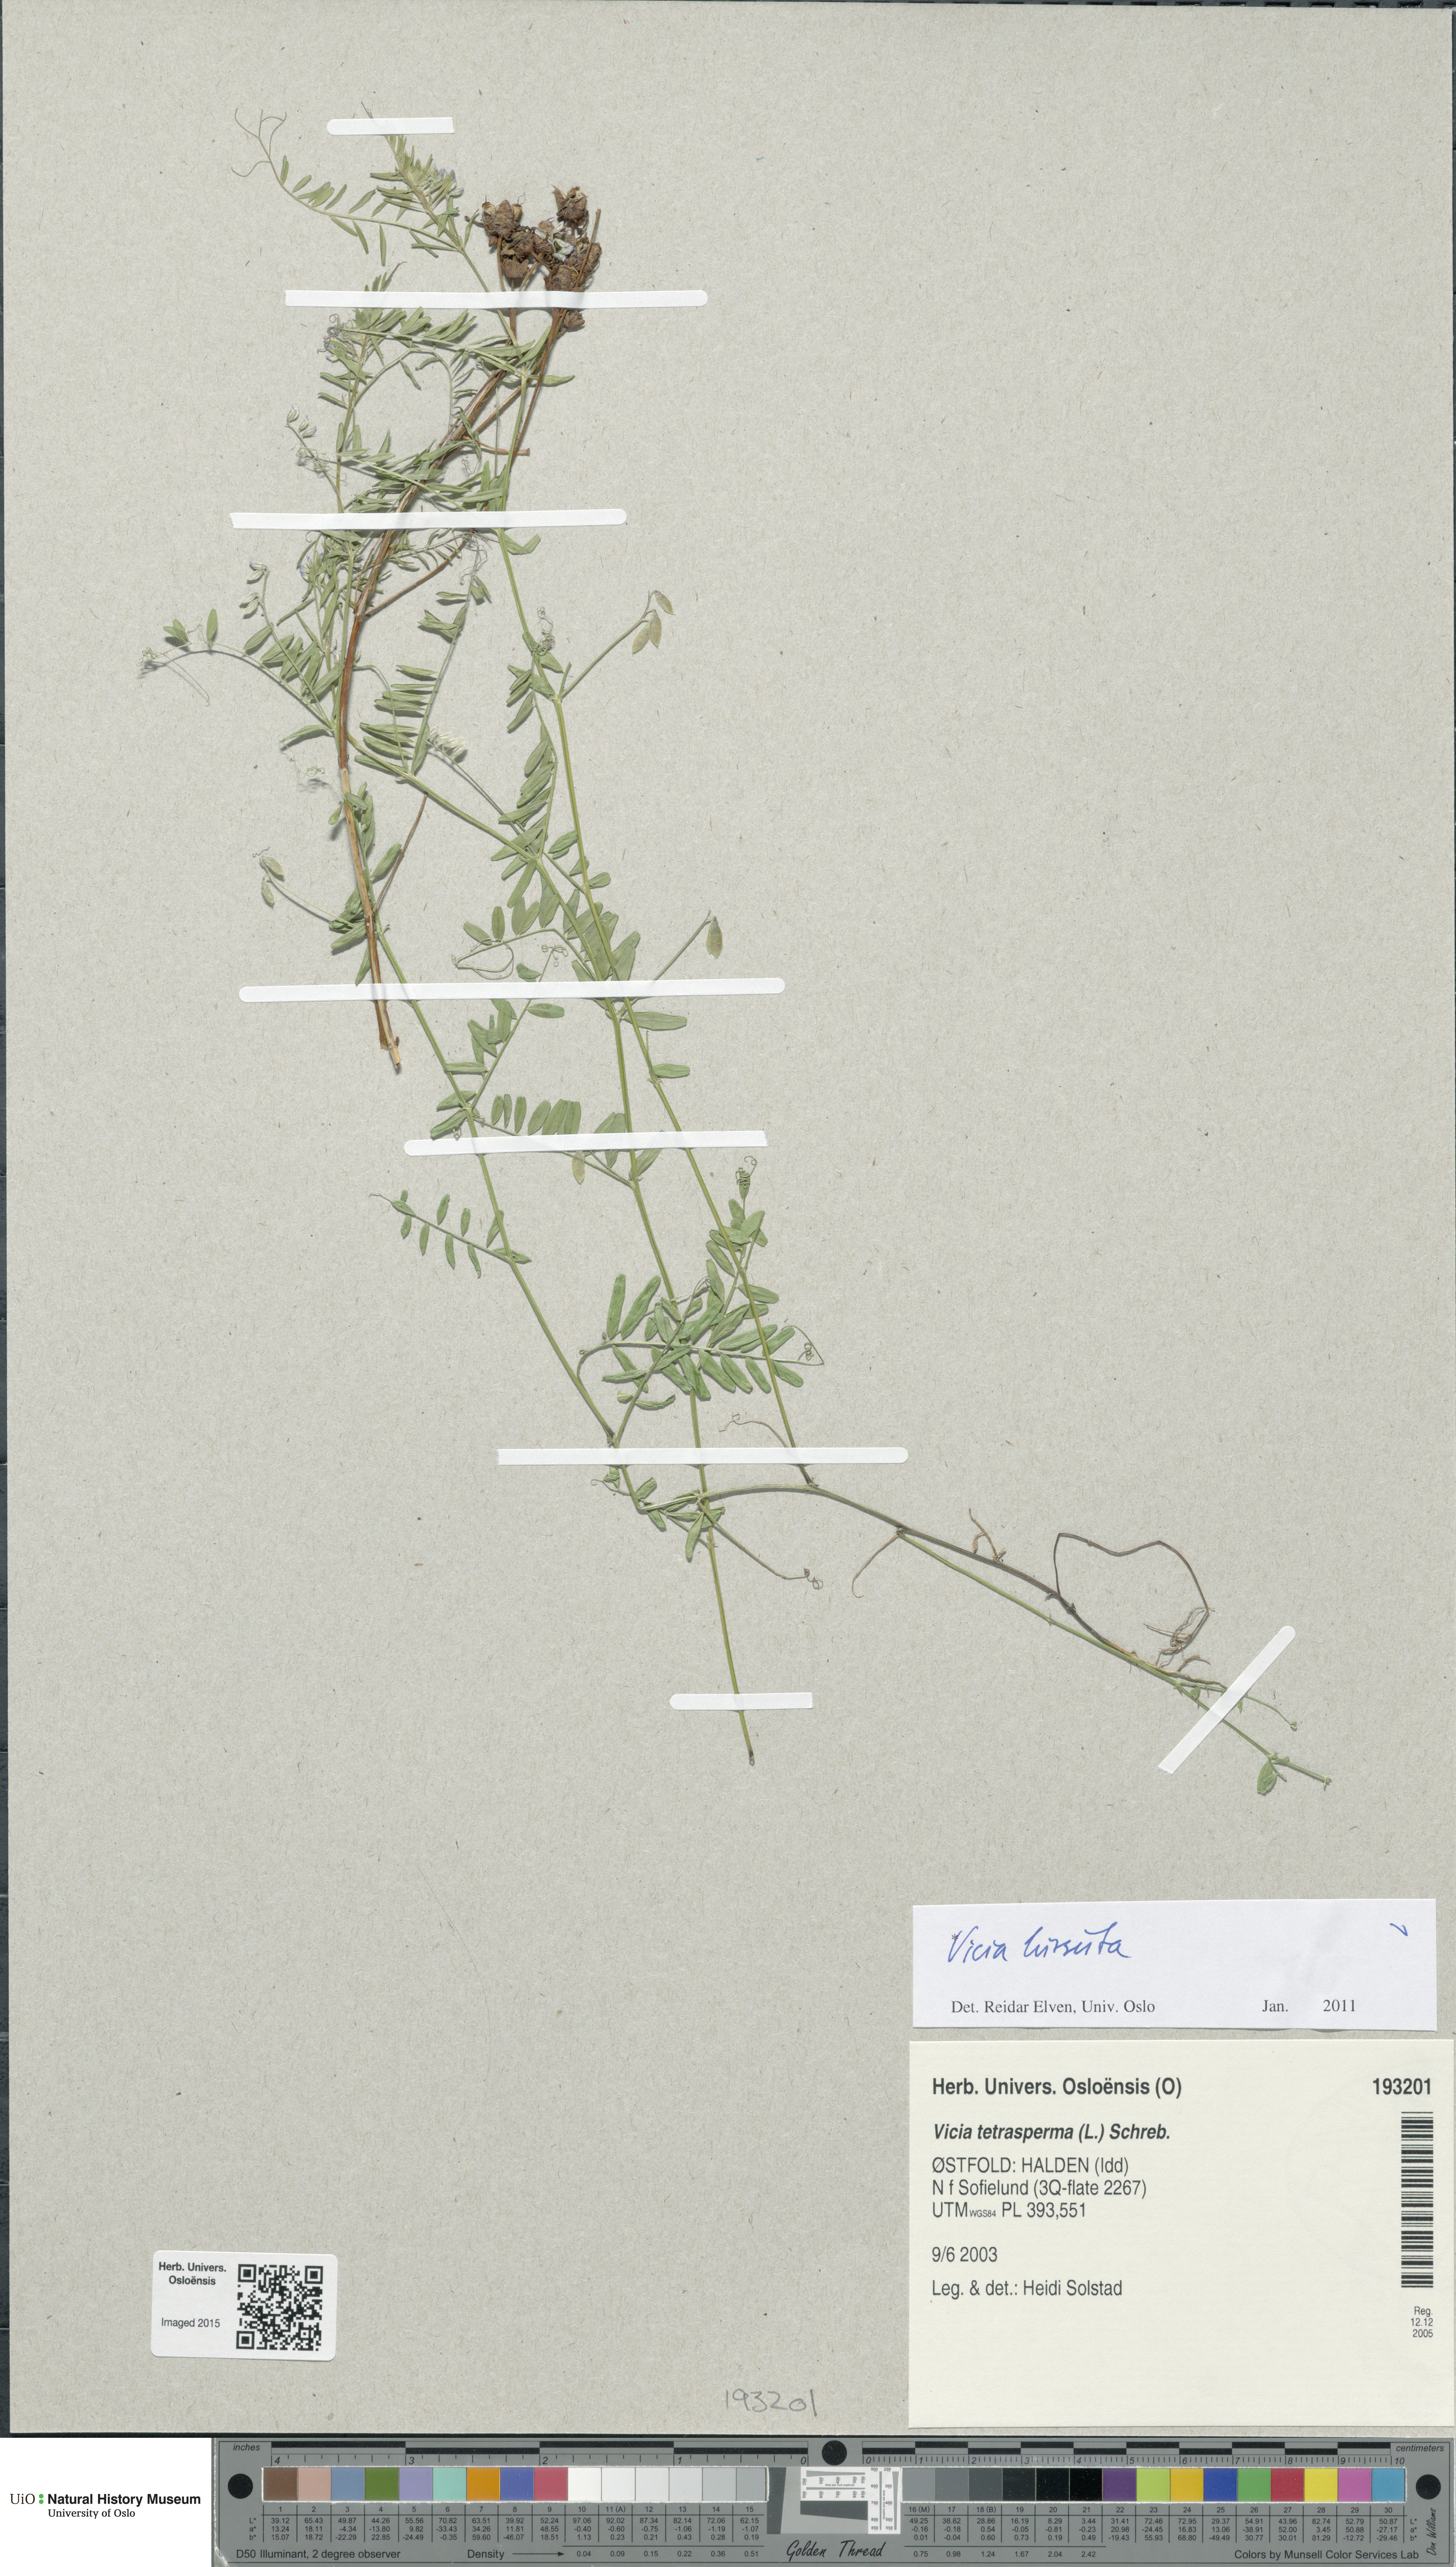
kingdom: Plantae
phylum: Tracheophyta
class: Magnoliopsida
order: Fabales
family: Fabaceae
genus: Vicia
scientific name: Vicia hirsuta
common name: Tiny vetch
